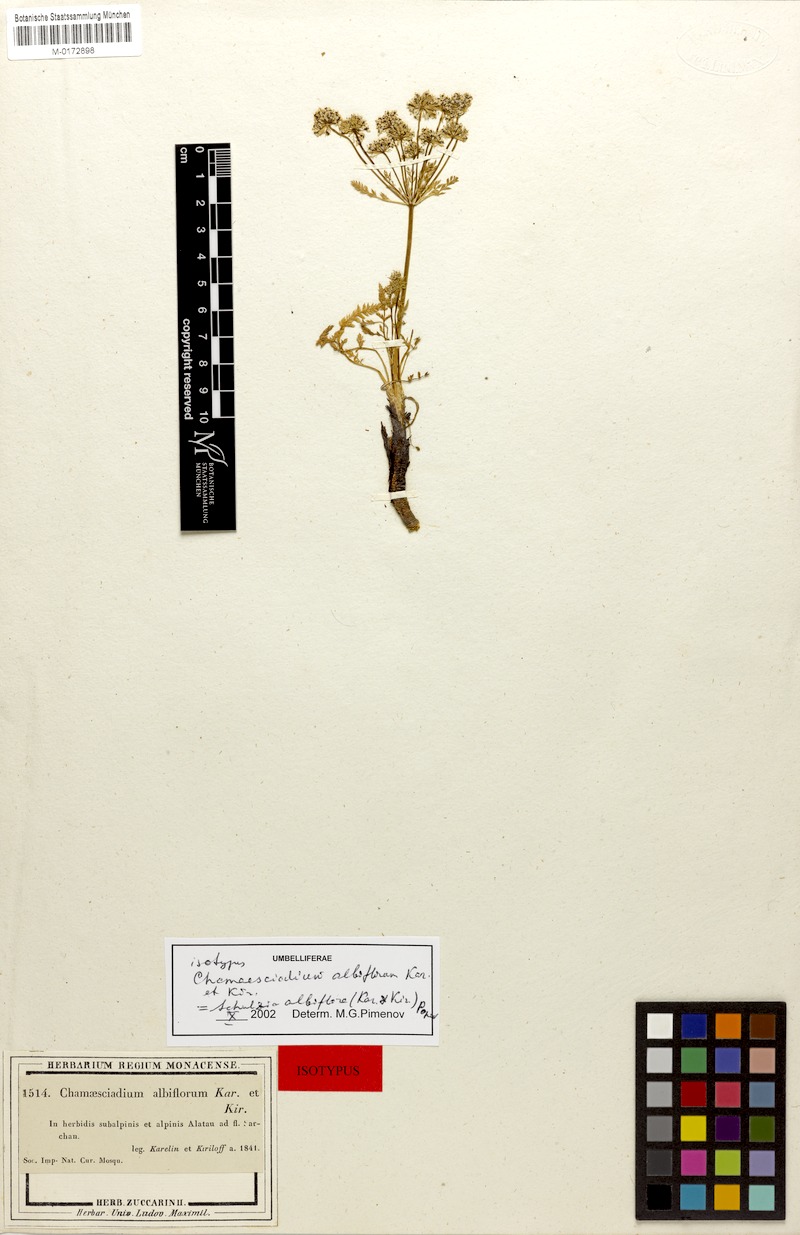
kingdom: Plantae
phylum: Tracheophyta
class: Magnoliopsida
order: Apiales
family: Apiaceae
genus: Schulzia
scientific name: Schulzia albiflora
